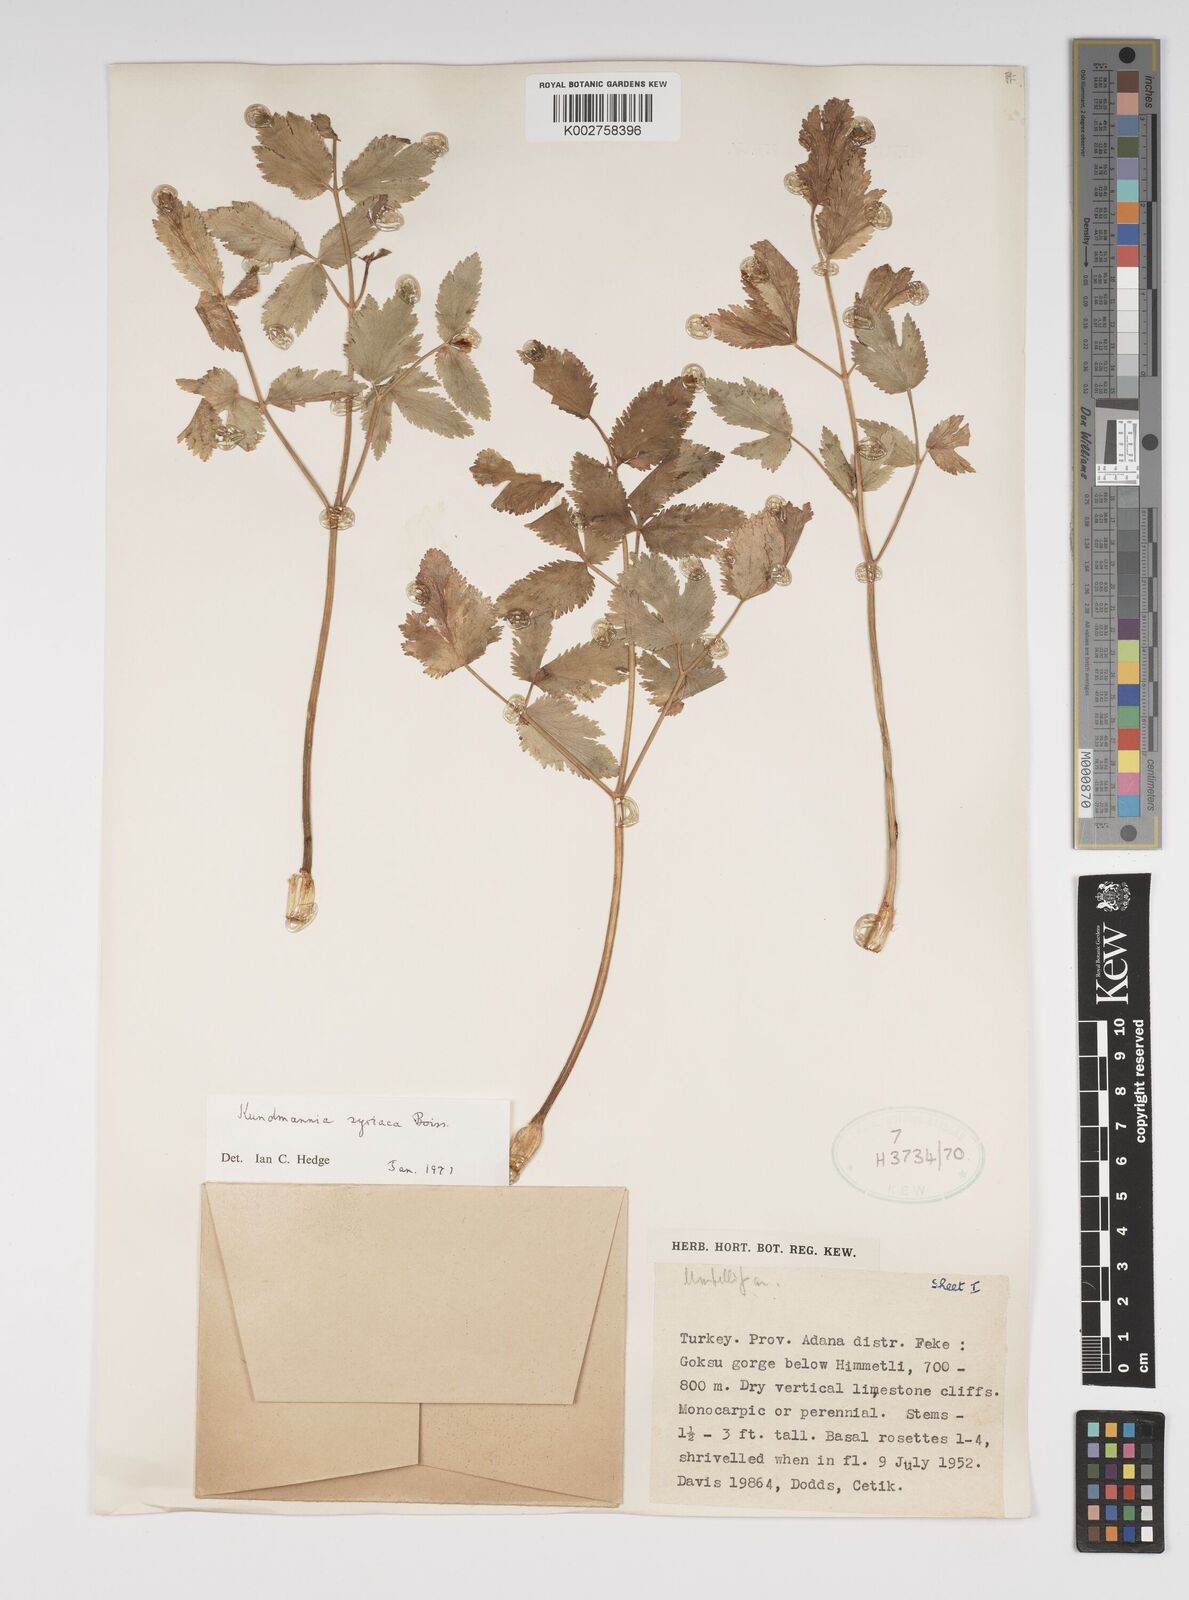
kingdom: Plantae
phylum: Tracheophyta
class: Magnoliopsida
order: Apiales
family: Apiaceae
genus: Kundmannia
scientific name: Kundmannia syriaca
